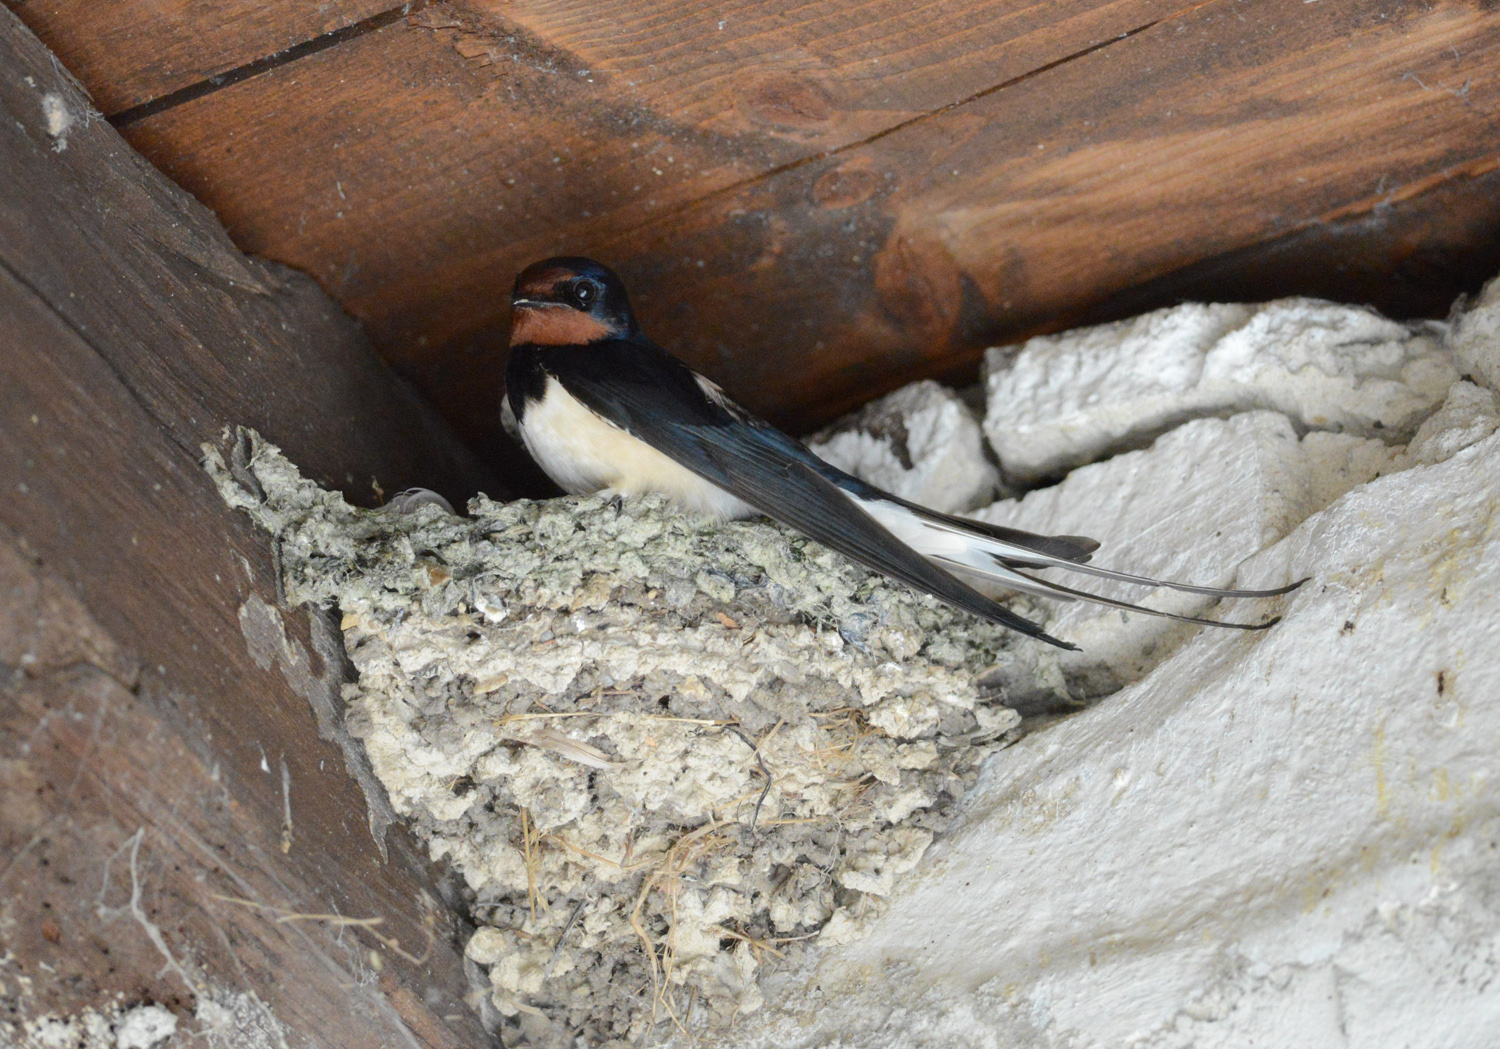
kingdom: Animalia
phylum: Chordata
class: Aves
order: Passeriformes
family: Hirundinidae
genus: Hirundo
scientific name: Hirundo rustica
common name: Barn swallow
